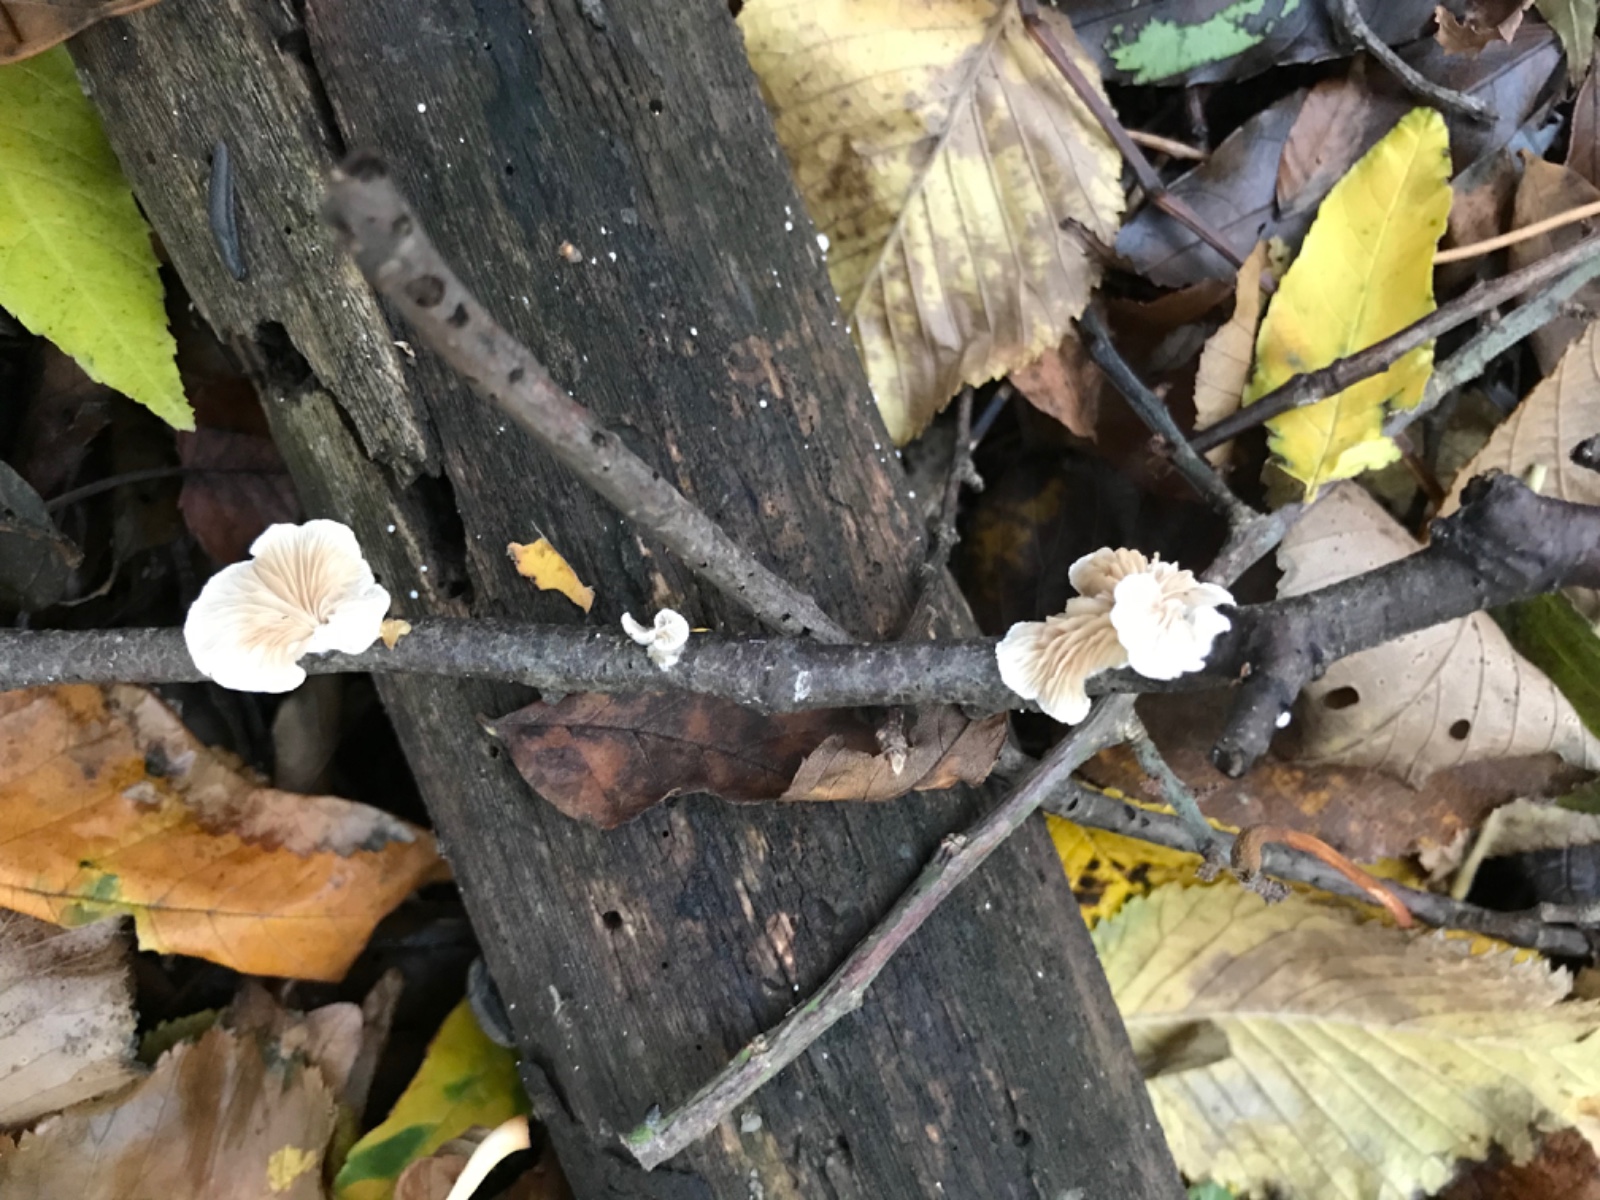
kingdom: Fungi
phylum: Basidiomycota
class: Agaricomycetes
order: Agaricales
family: Crepidotaceae
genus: Crepidotus
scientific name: Crepidotus cesatii
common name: almindelig muslingesvamp
